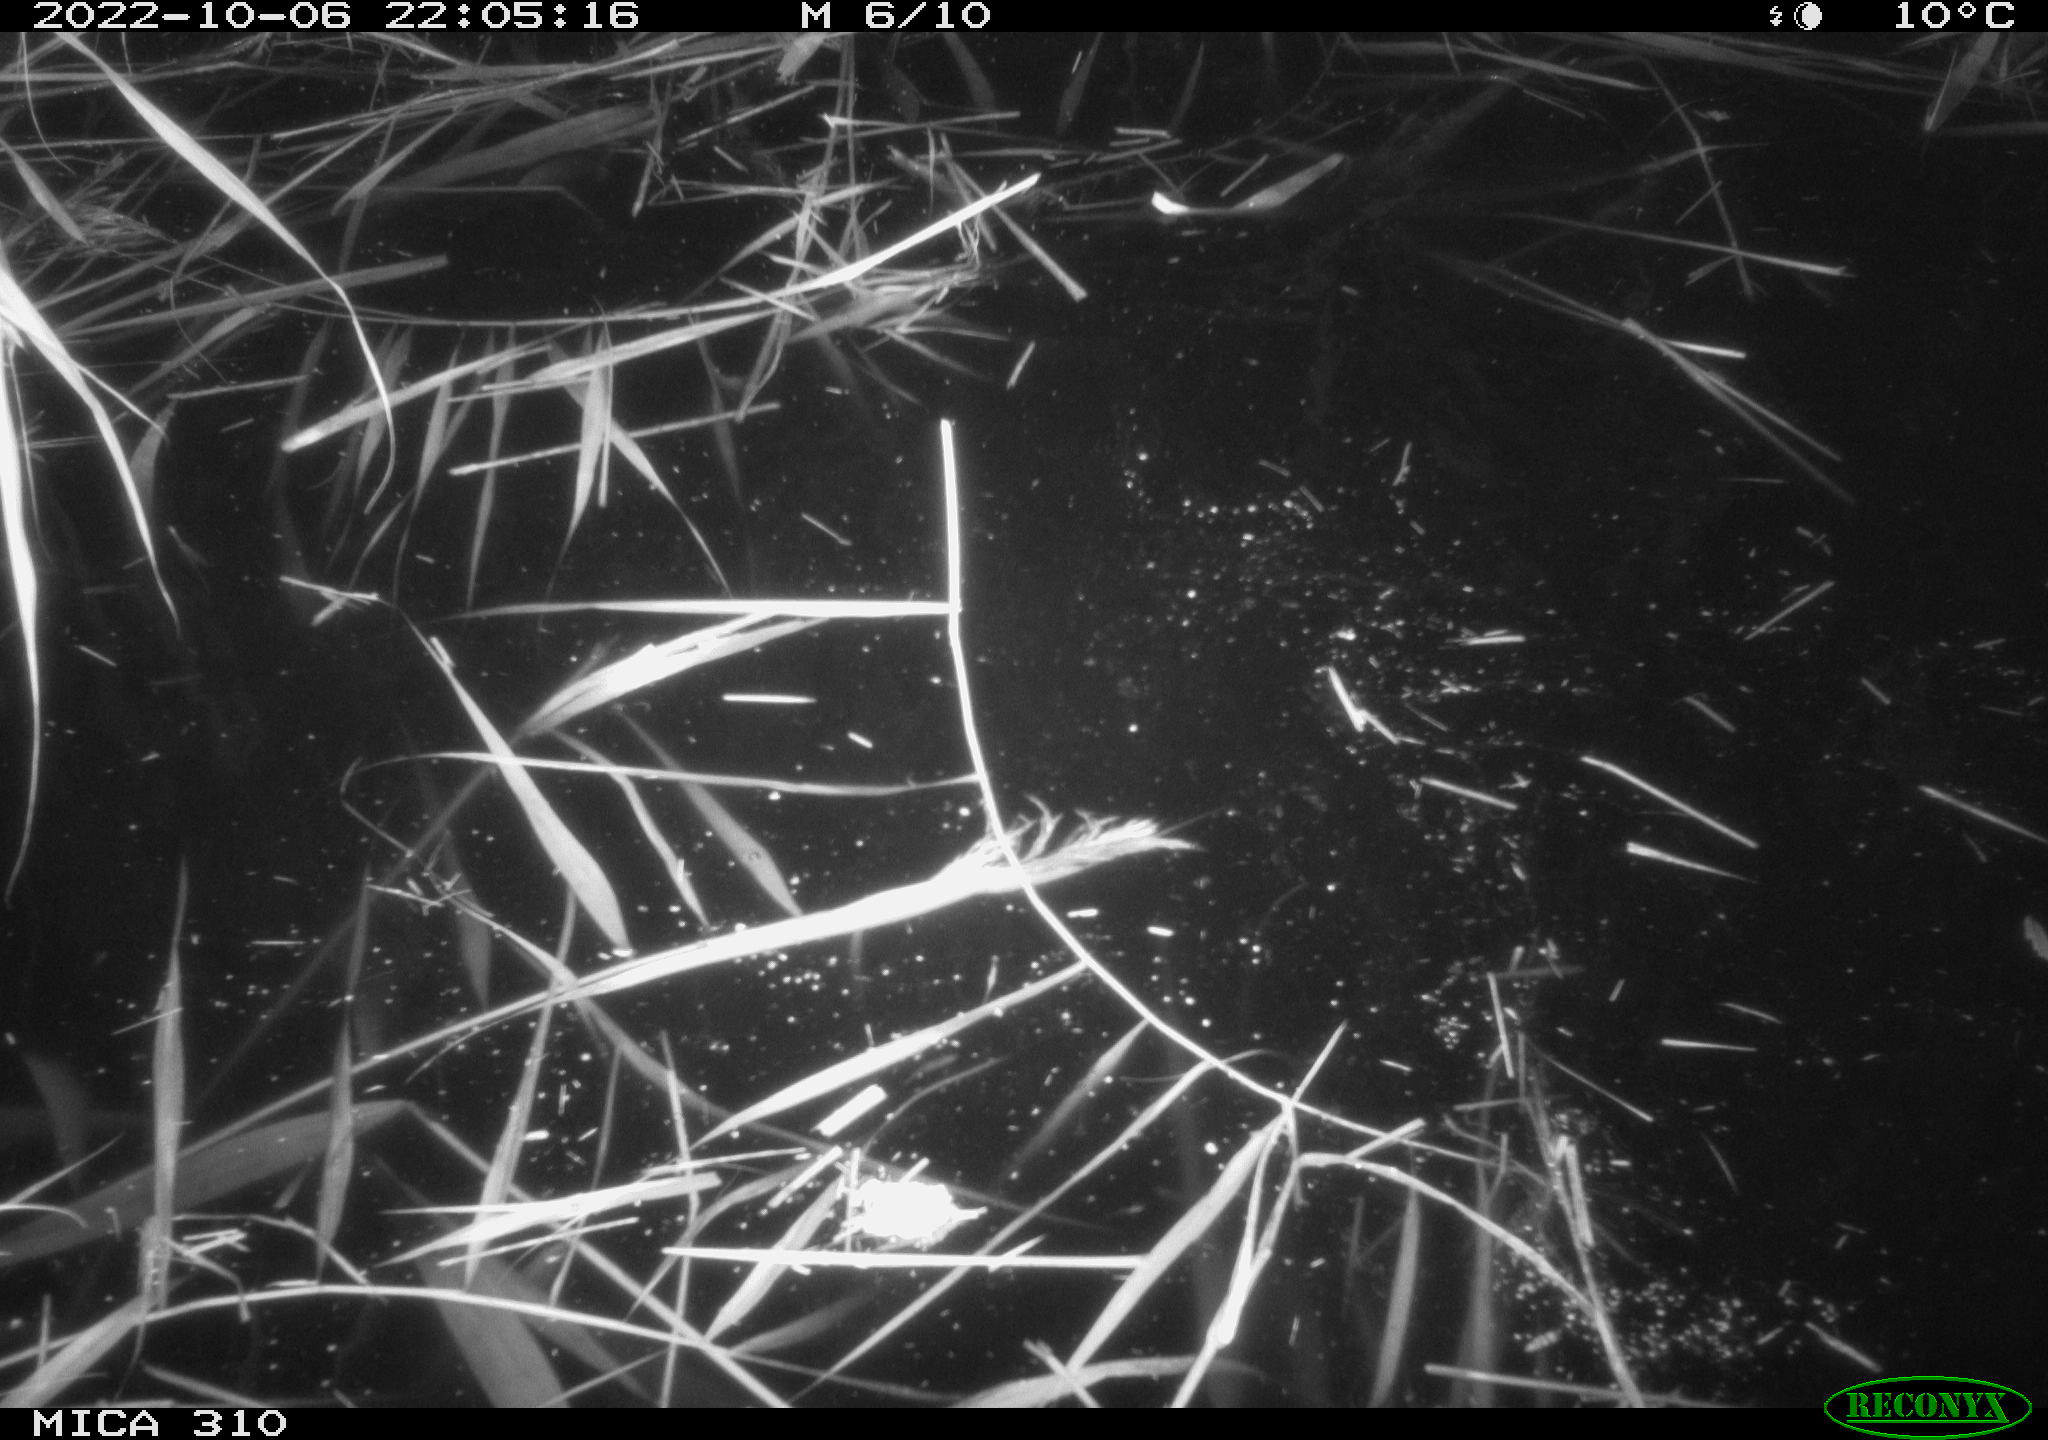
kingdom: Animalia
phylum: Chordata
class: Mammalia
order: Rodentia
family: Cricetidae
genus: Ondatra
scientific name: Ondatra zibethicus
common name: Muskrat
